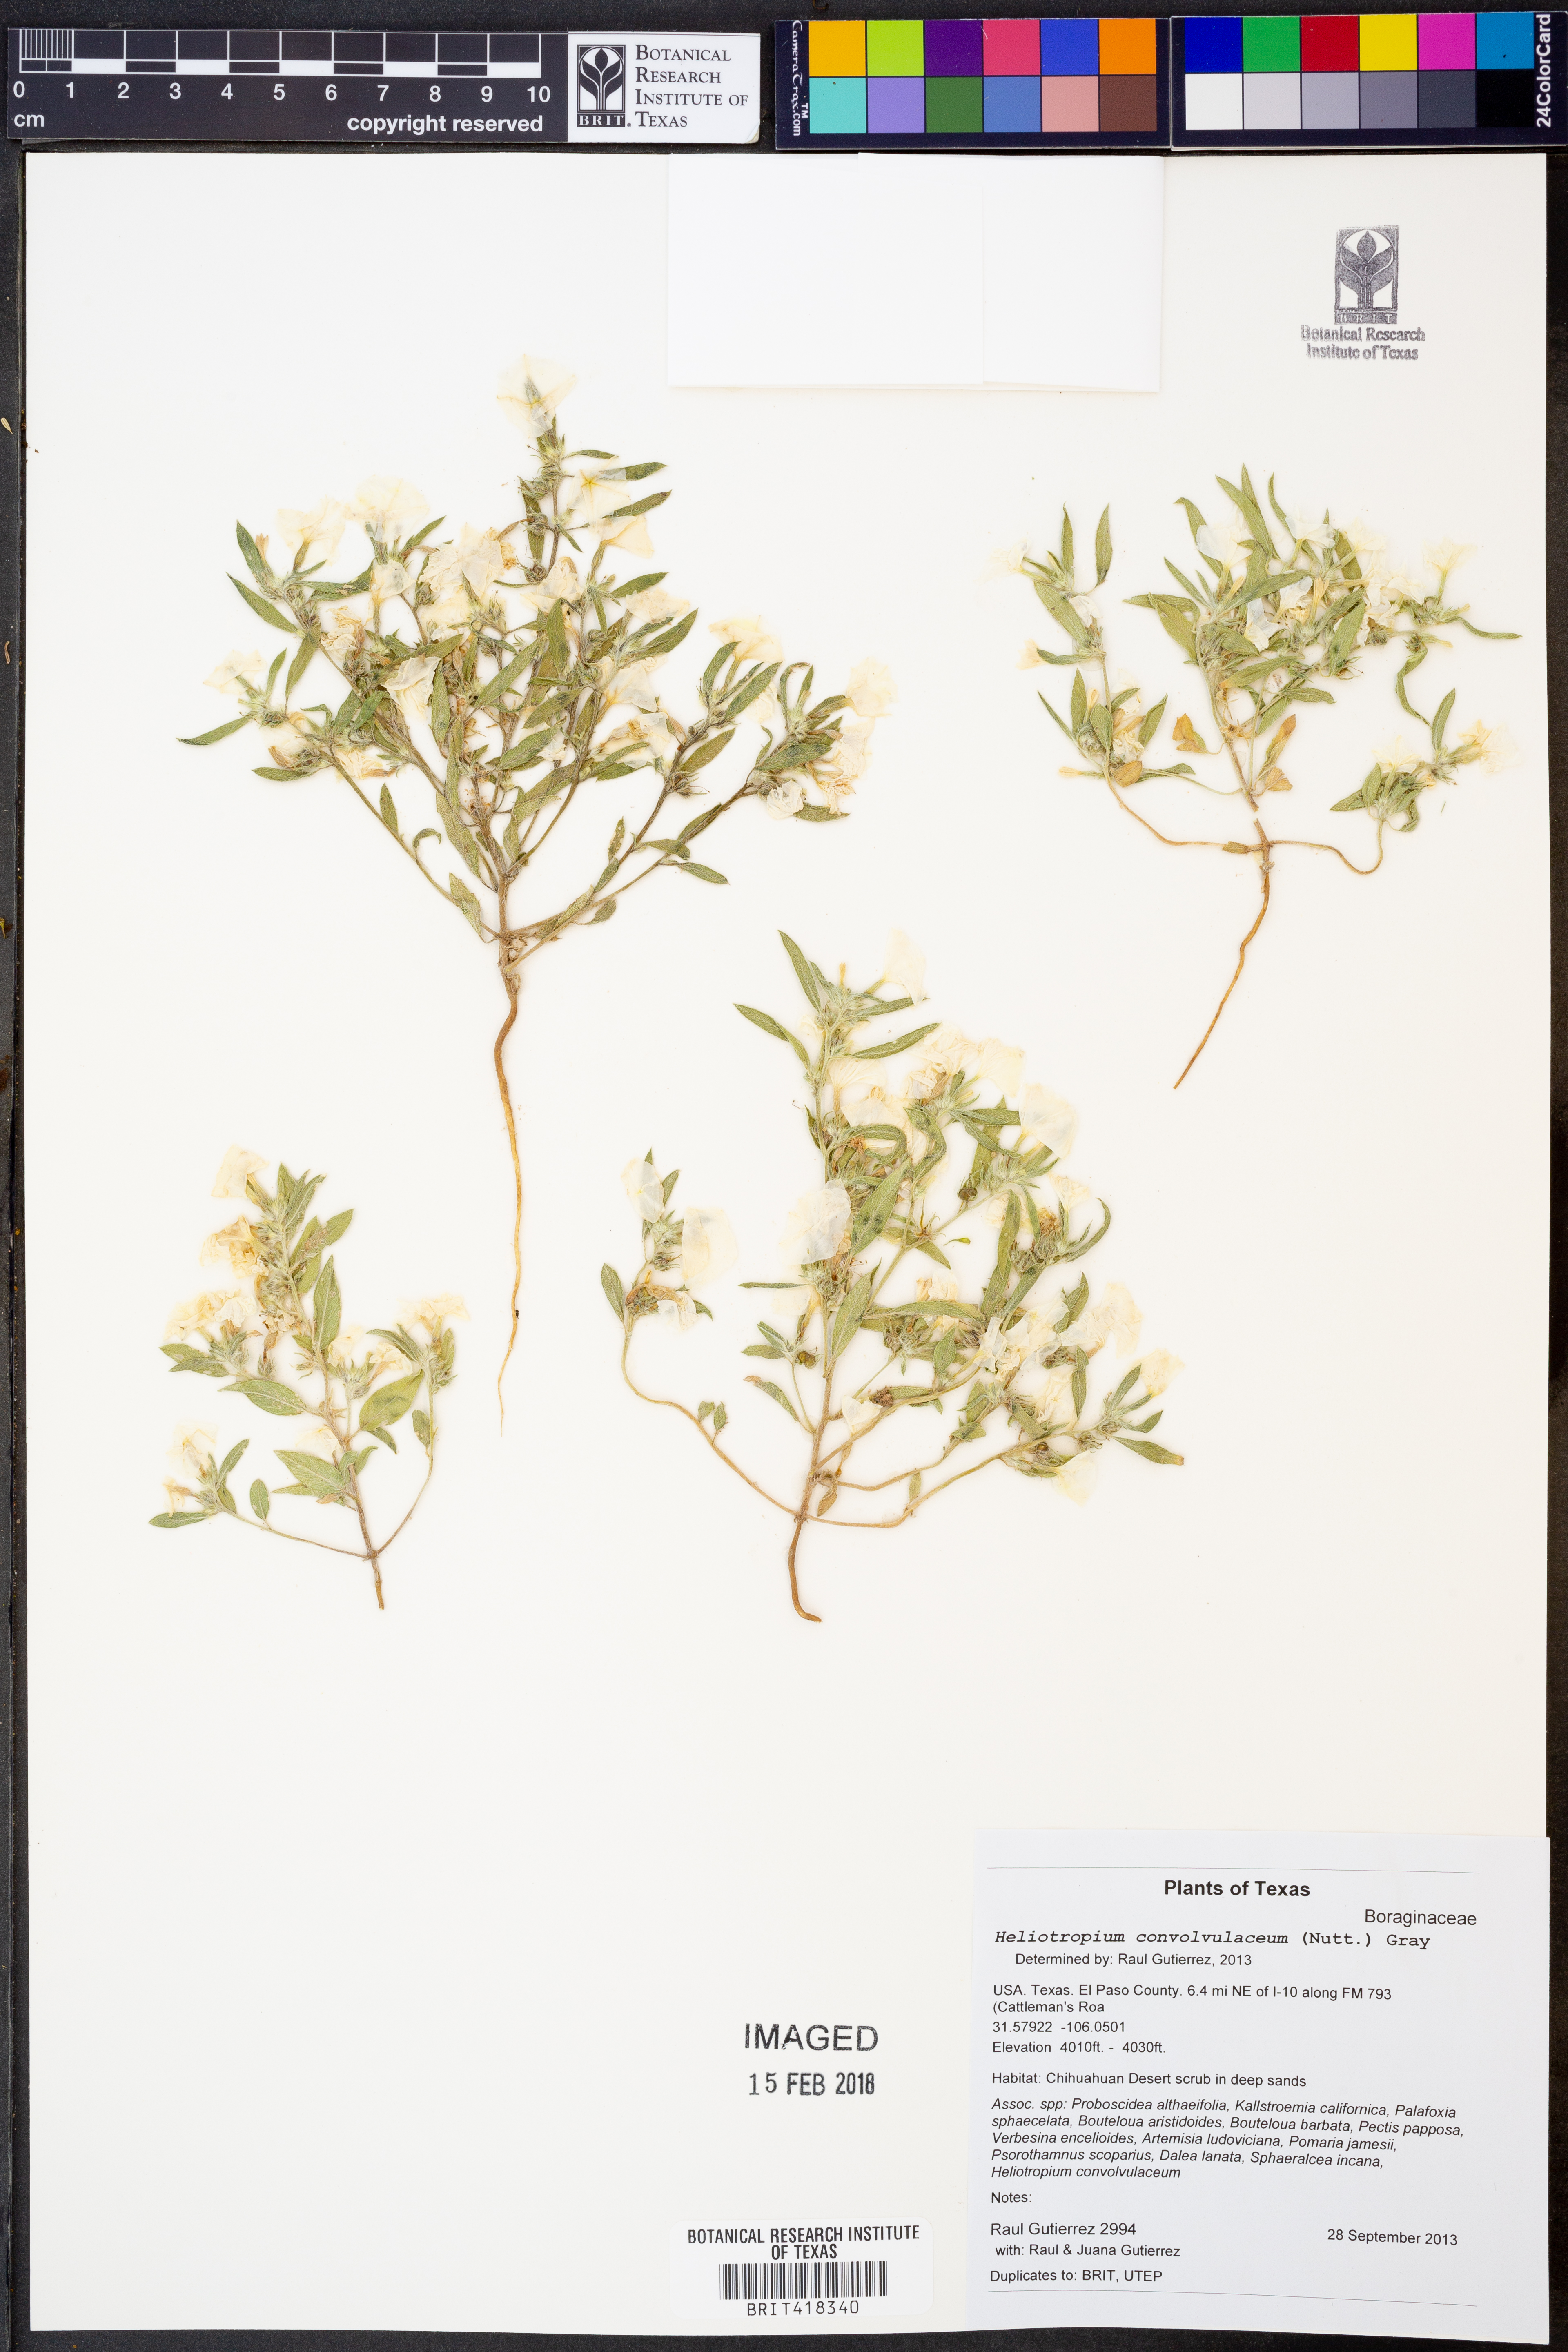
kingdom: Plantae
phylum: Tracheophyta
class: Magnoliopsida
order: Boraginales
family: Heliotropiaceae
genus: Euploca
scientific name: Euploca convolvulacea
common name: Bindweed heliotrope
